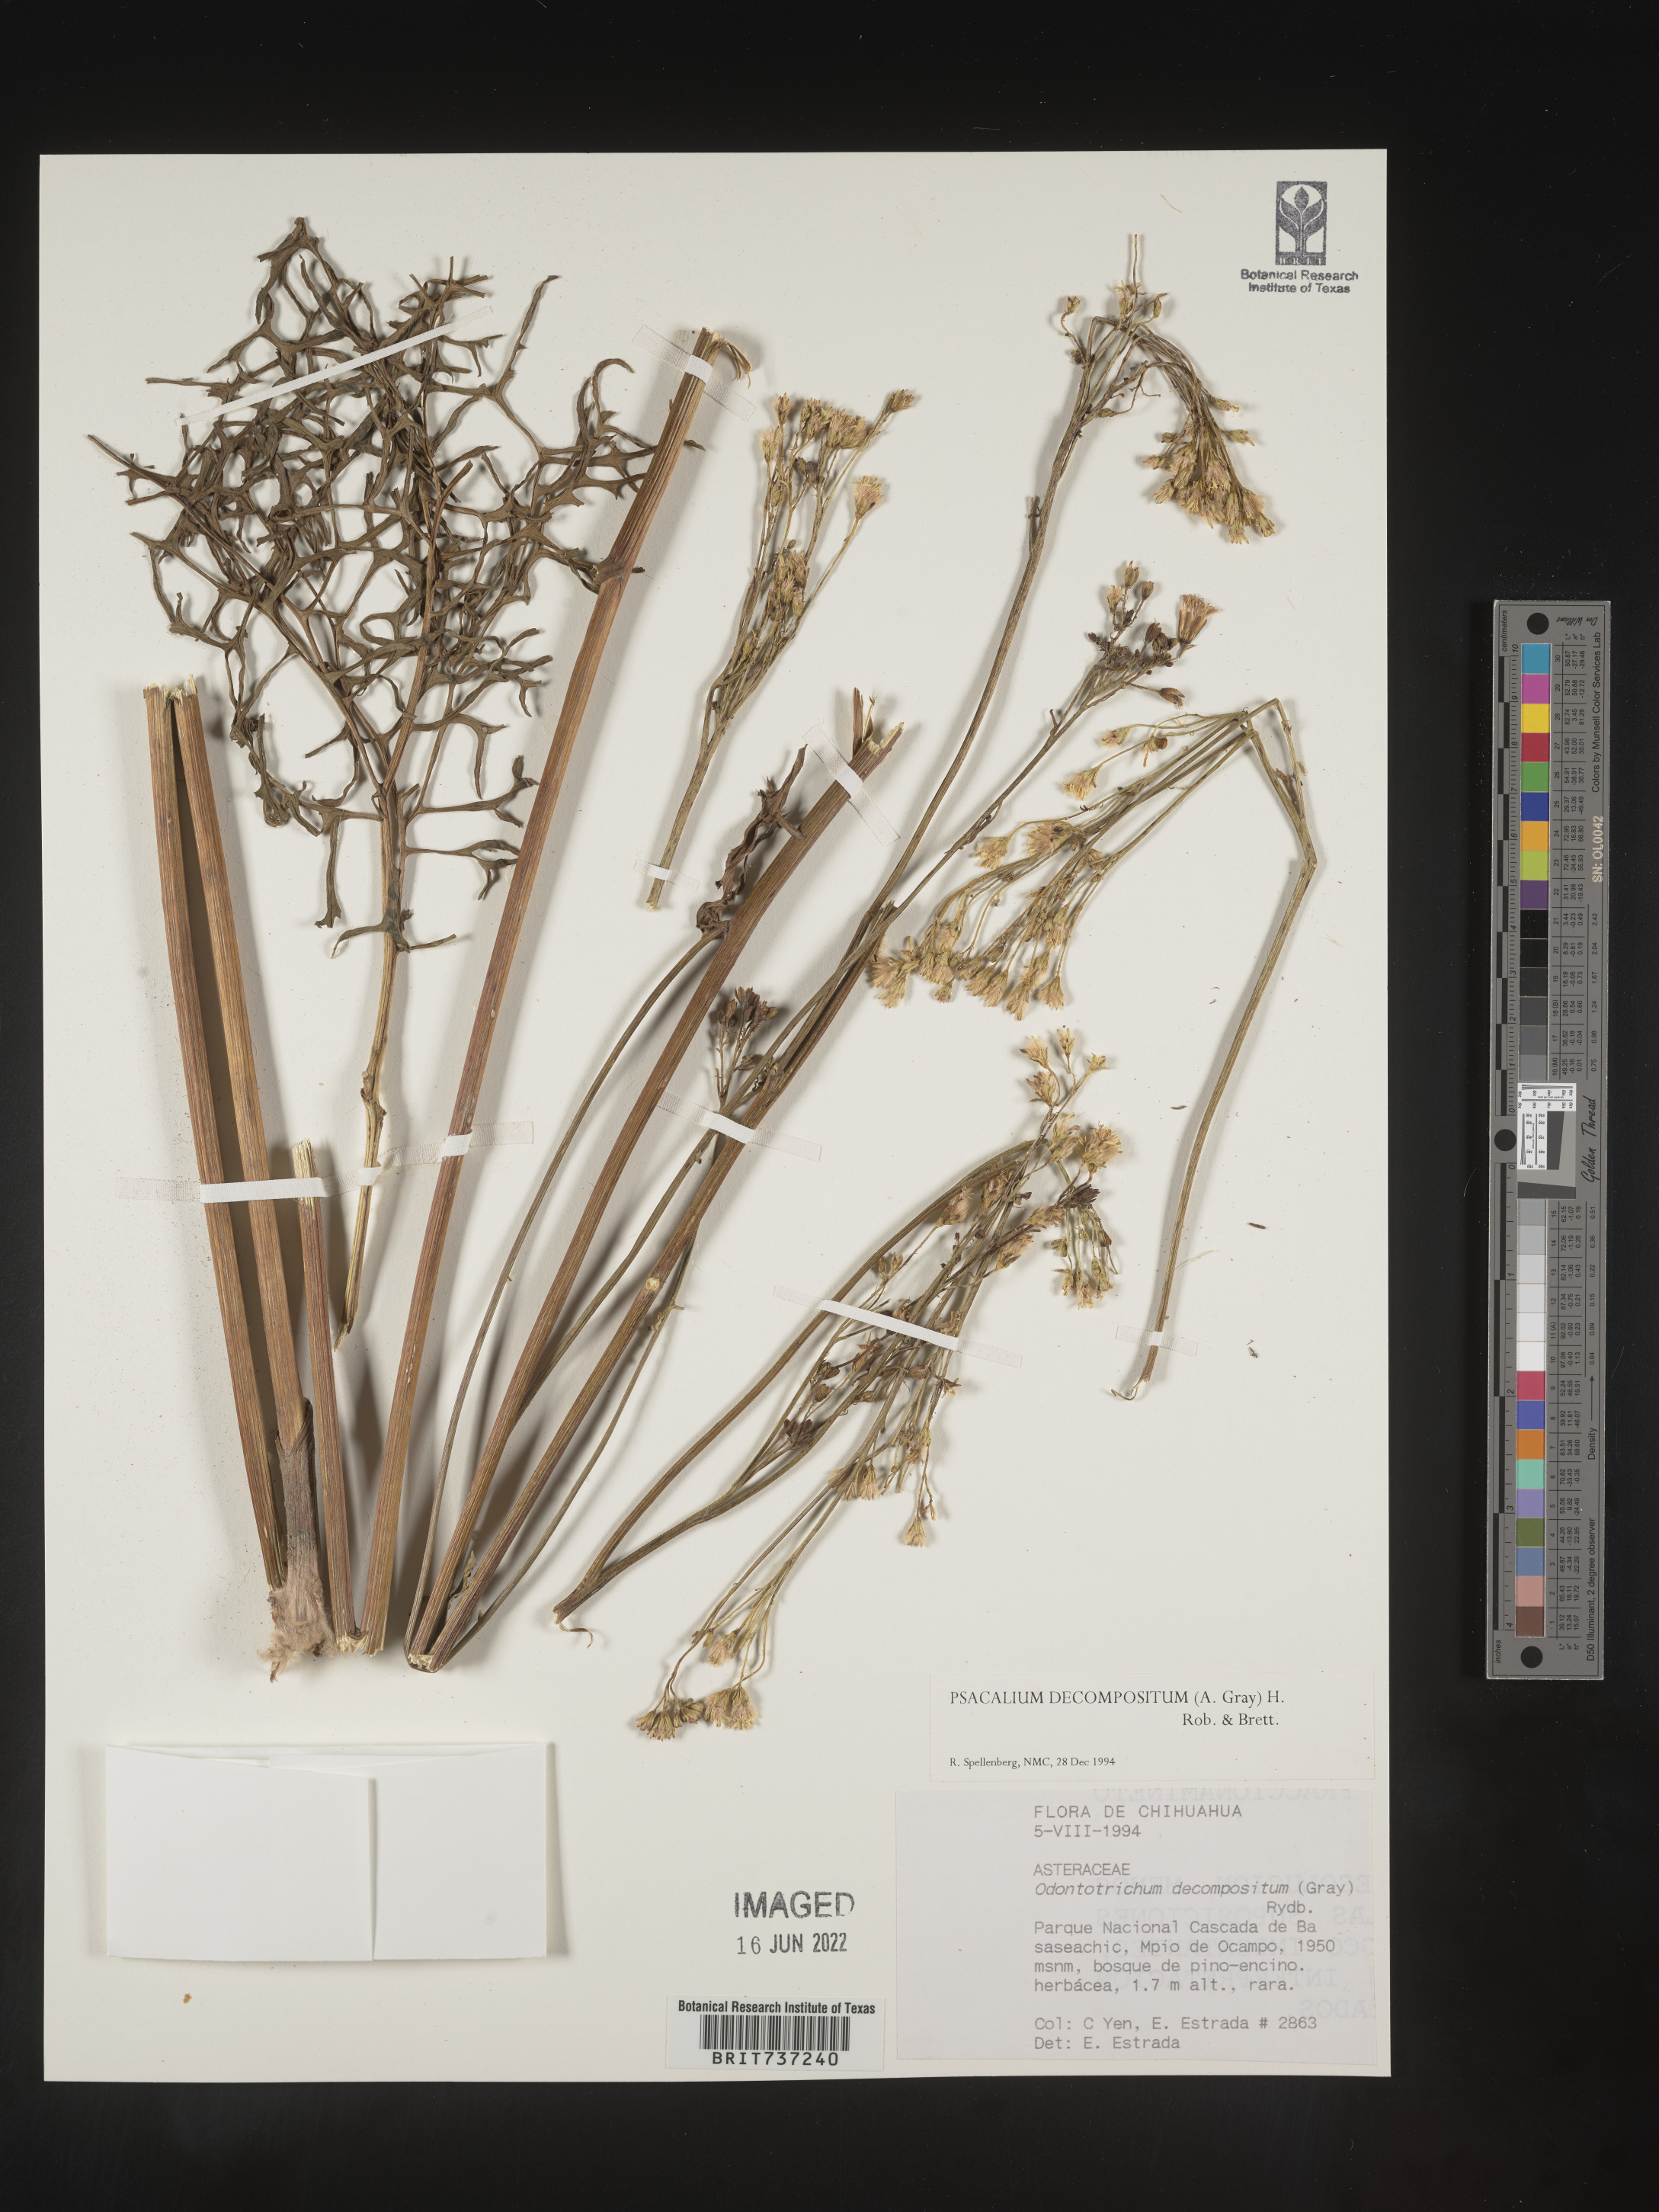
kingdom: Plantae
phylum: Tracheophyta
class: Magnoliopsida
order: Asterales
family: Asteraceae
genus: Psacalium
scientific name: Psacalium
